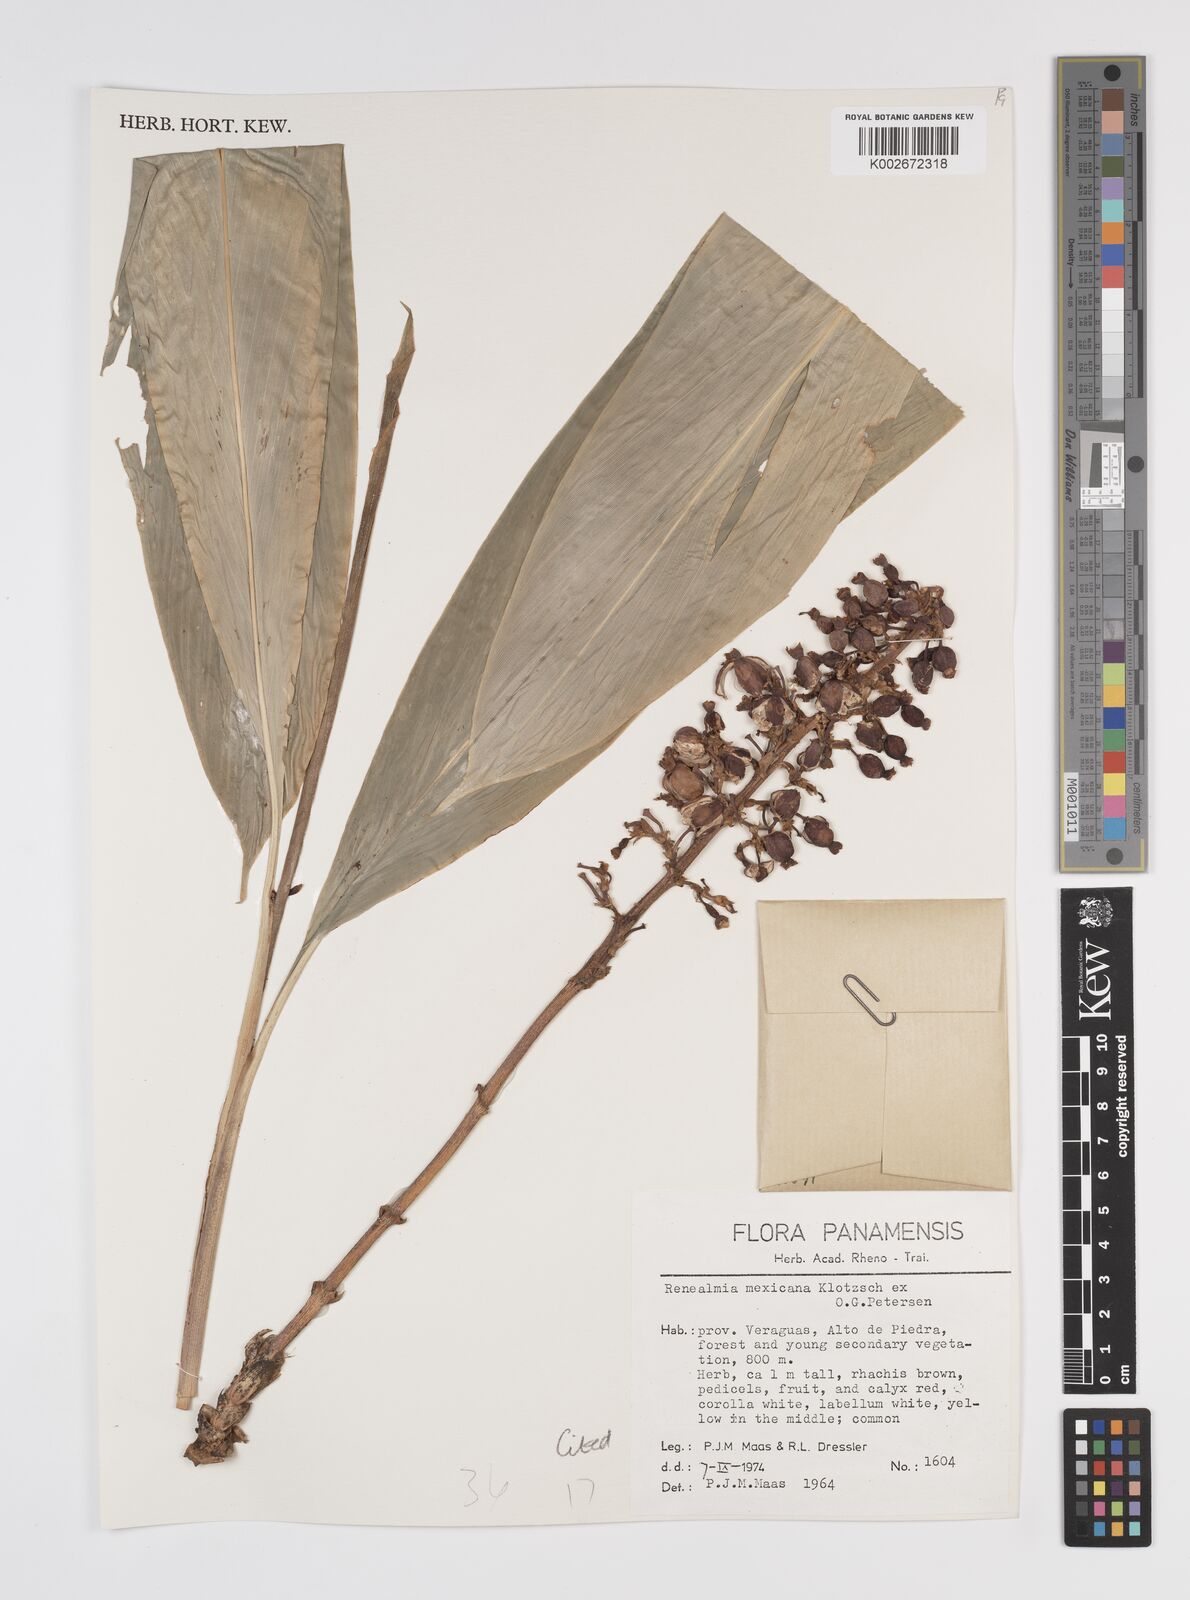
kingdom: Plantae
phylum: Tracheophyta
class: Liliopsida
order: Zingiberales
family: Zingiberaceae
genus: Renealmia
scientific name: Renealmia mexicana
